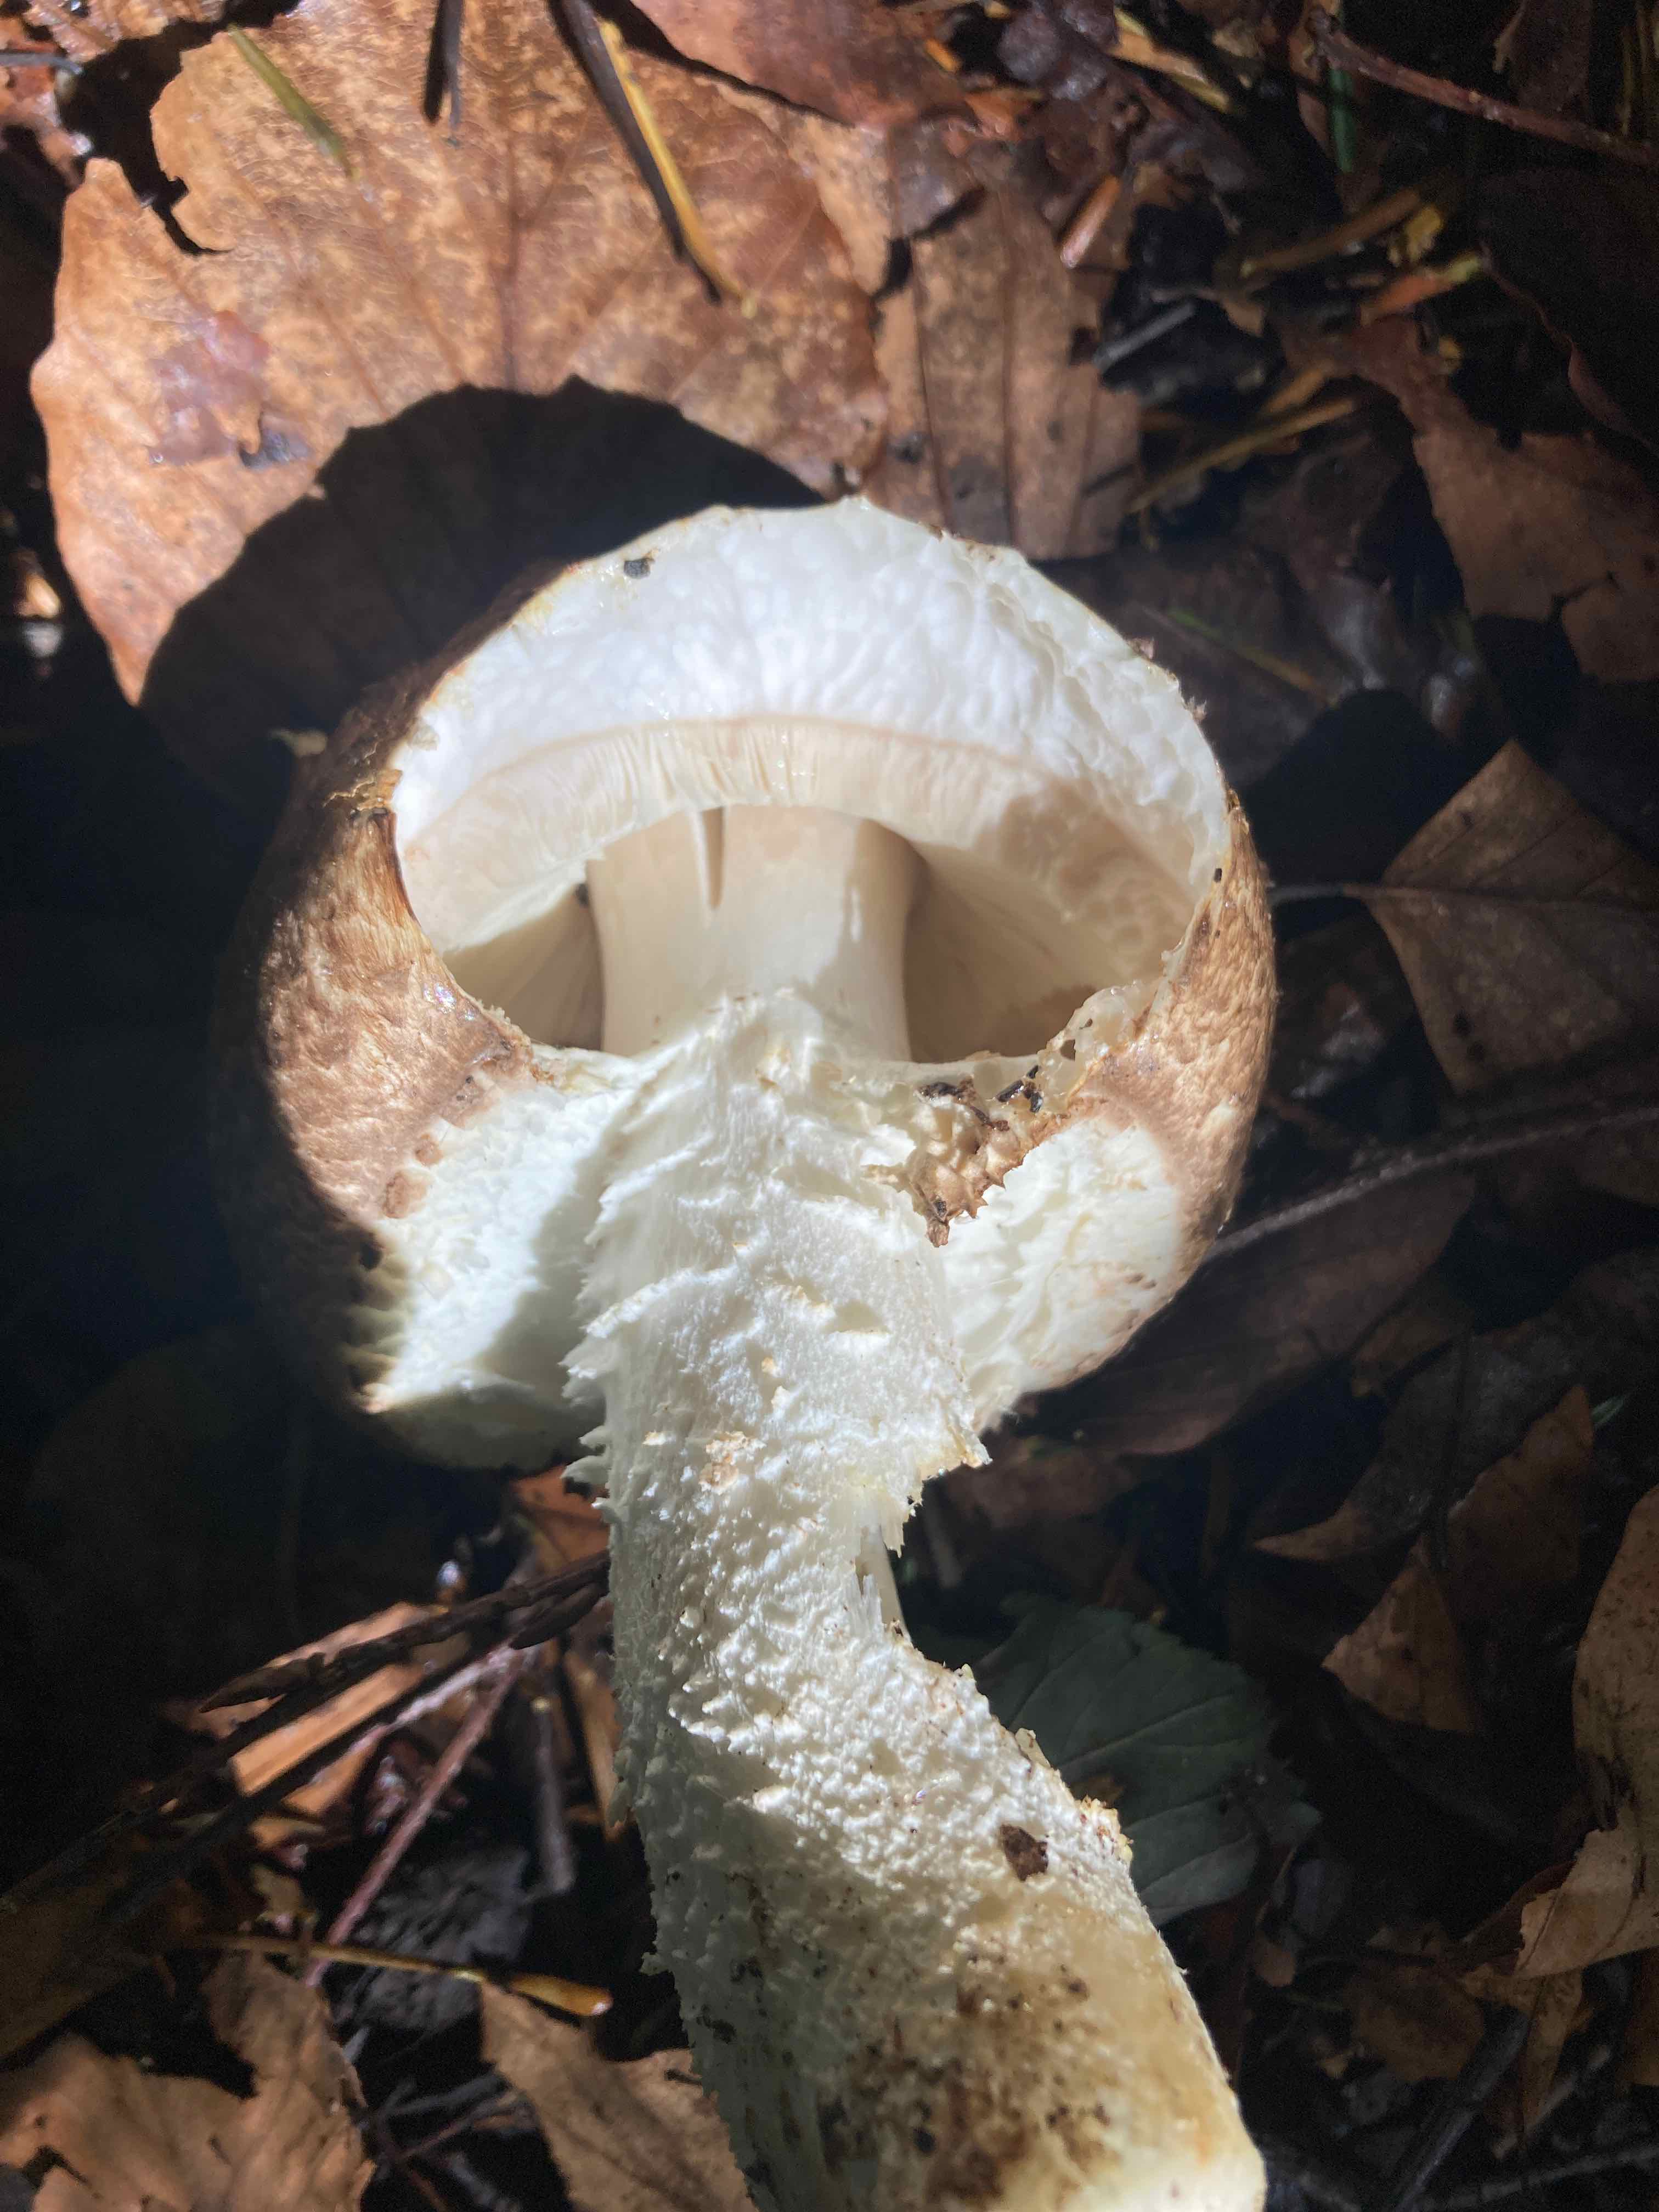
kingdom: Fungi
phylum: Basidiomycota
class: Agaricomycetes
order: Agaricales
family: Agaricaceae
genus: Agaricus
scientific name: Agaricus augustus
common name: prægtig champignon
